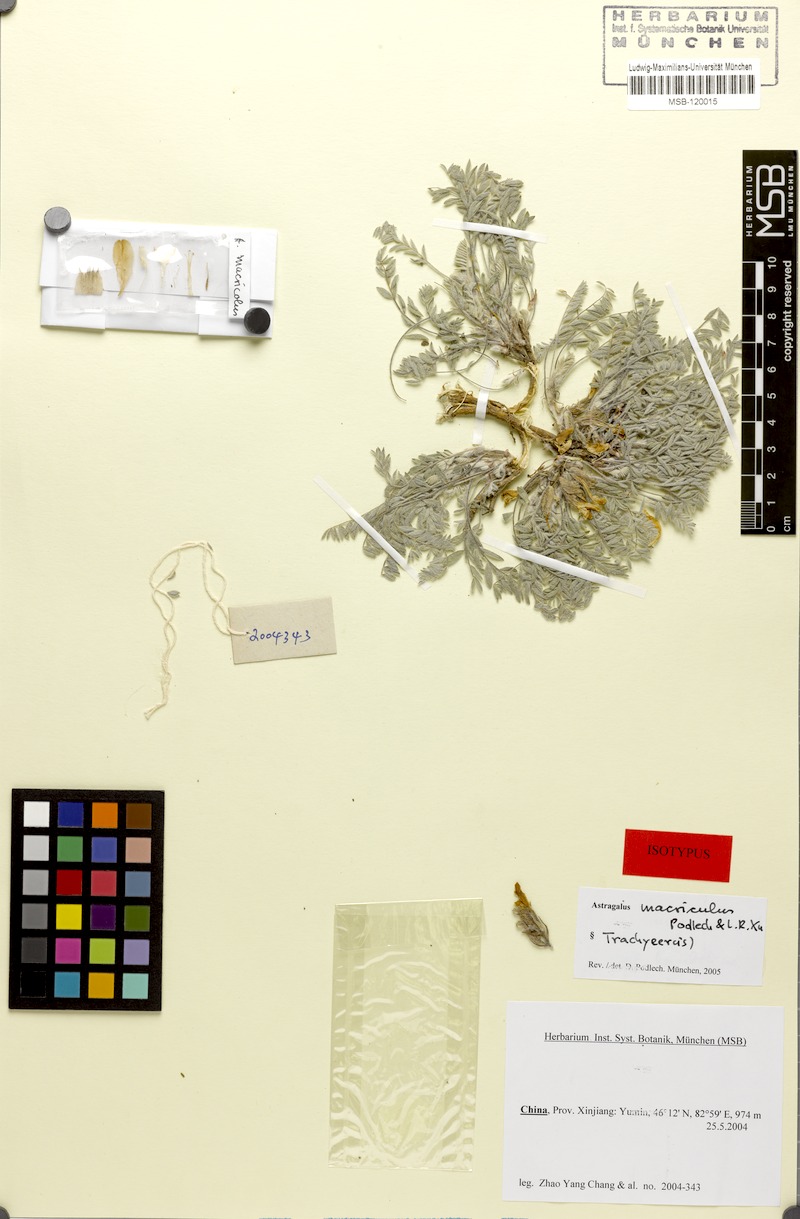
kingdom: Plantae
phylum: Tracheophyta
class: Magnoliopsida
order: Fabales
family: Fabaceae
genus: Astragalus
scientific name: Astragalus densifolius
